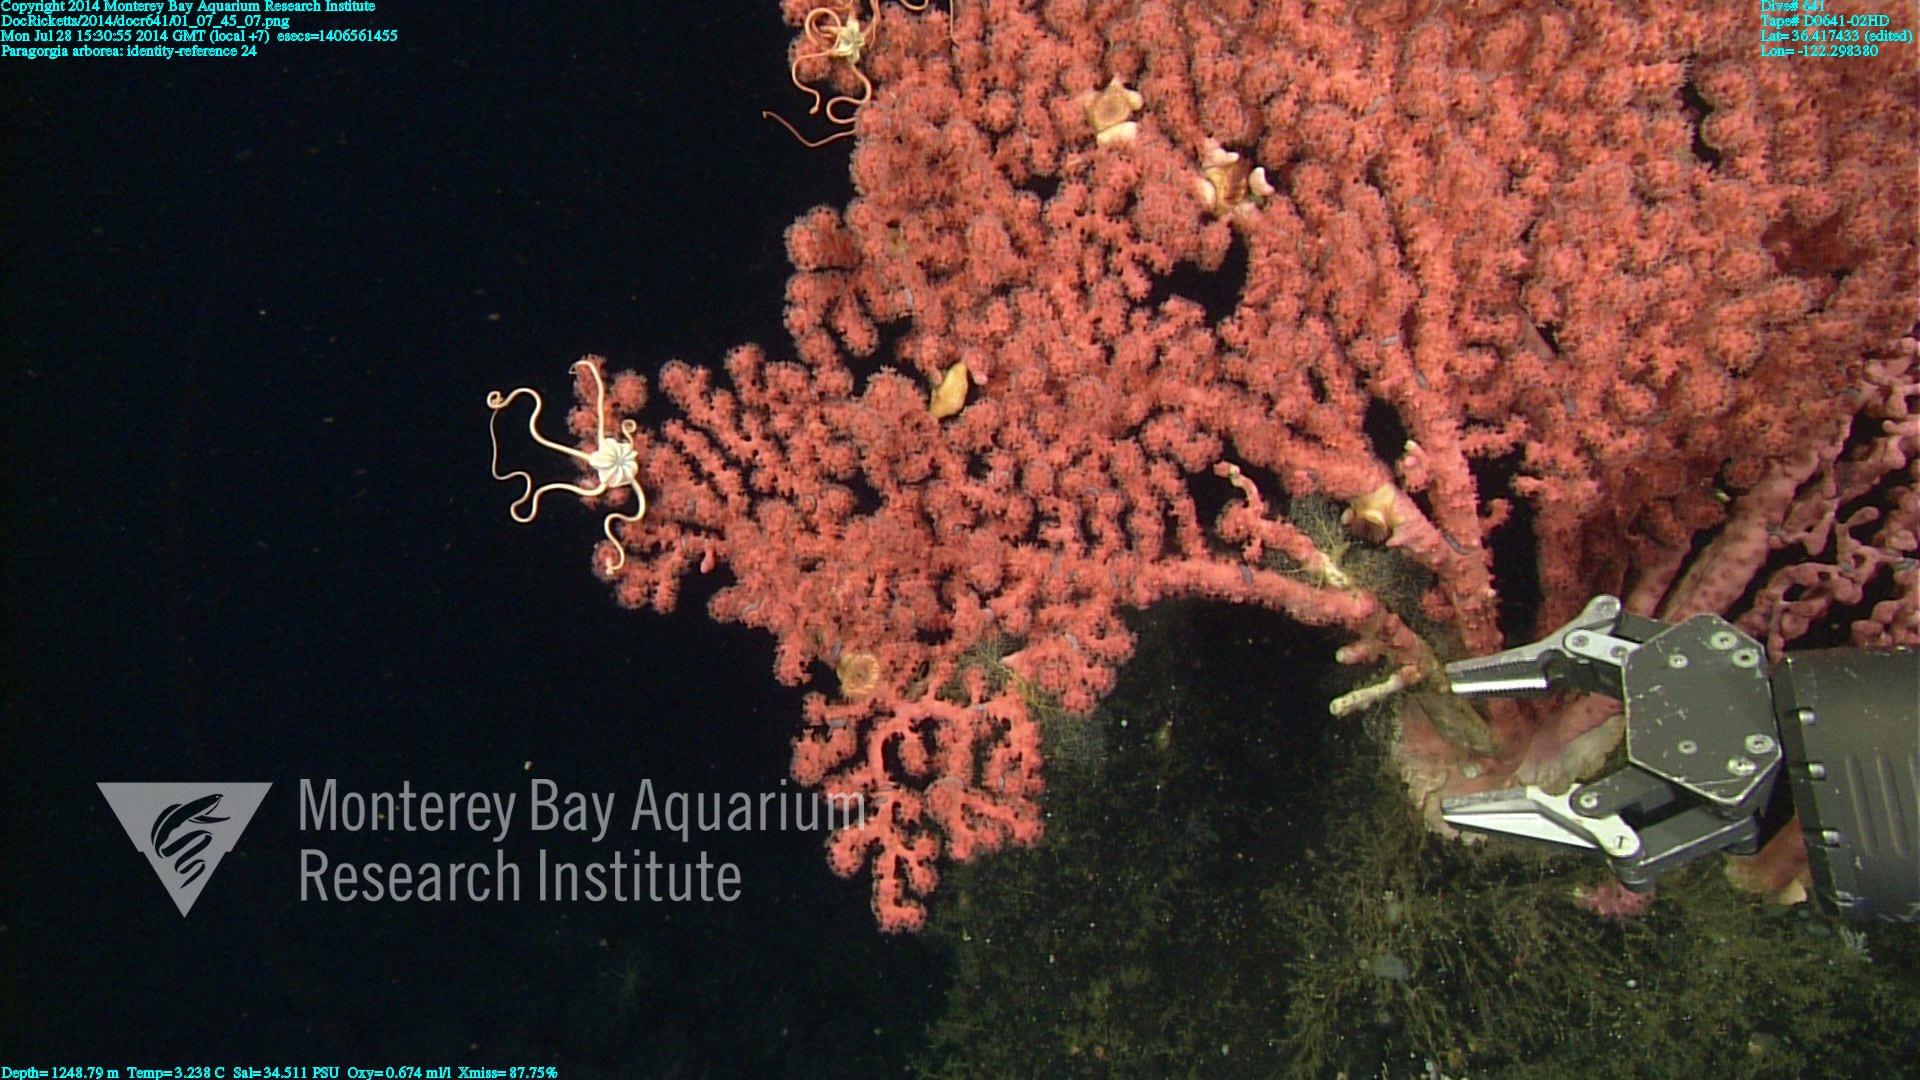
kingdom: Animalia
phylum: Cnidaria
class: Anthozoa
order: Scleralcyonacea
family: Coralliidae
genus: Paragorgia
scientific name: Paragorgia arborea
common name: Bubble gum coral
